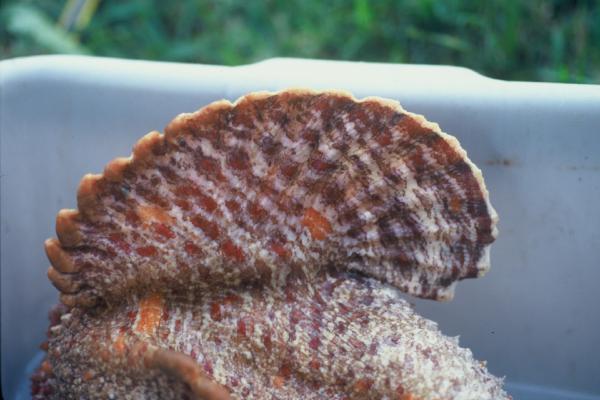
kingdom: Animalia
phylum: Chordata
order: Scorpaeniformes
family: Synanceiidae
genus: Synanceia
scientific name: Synanceia verrucosa
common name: Stonefish
